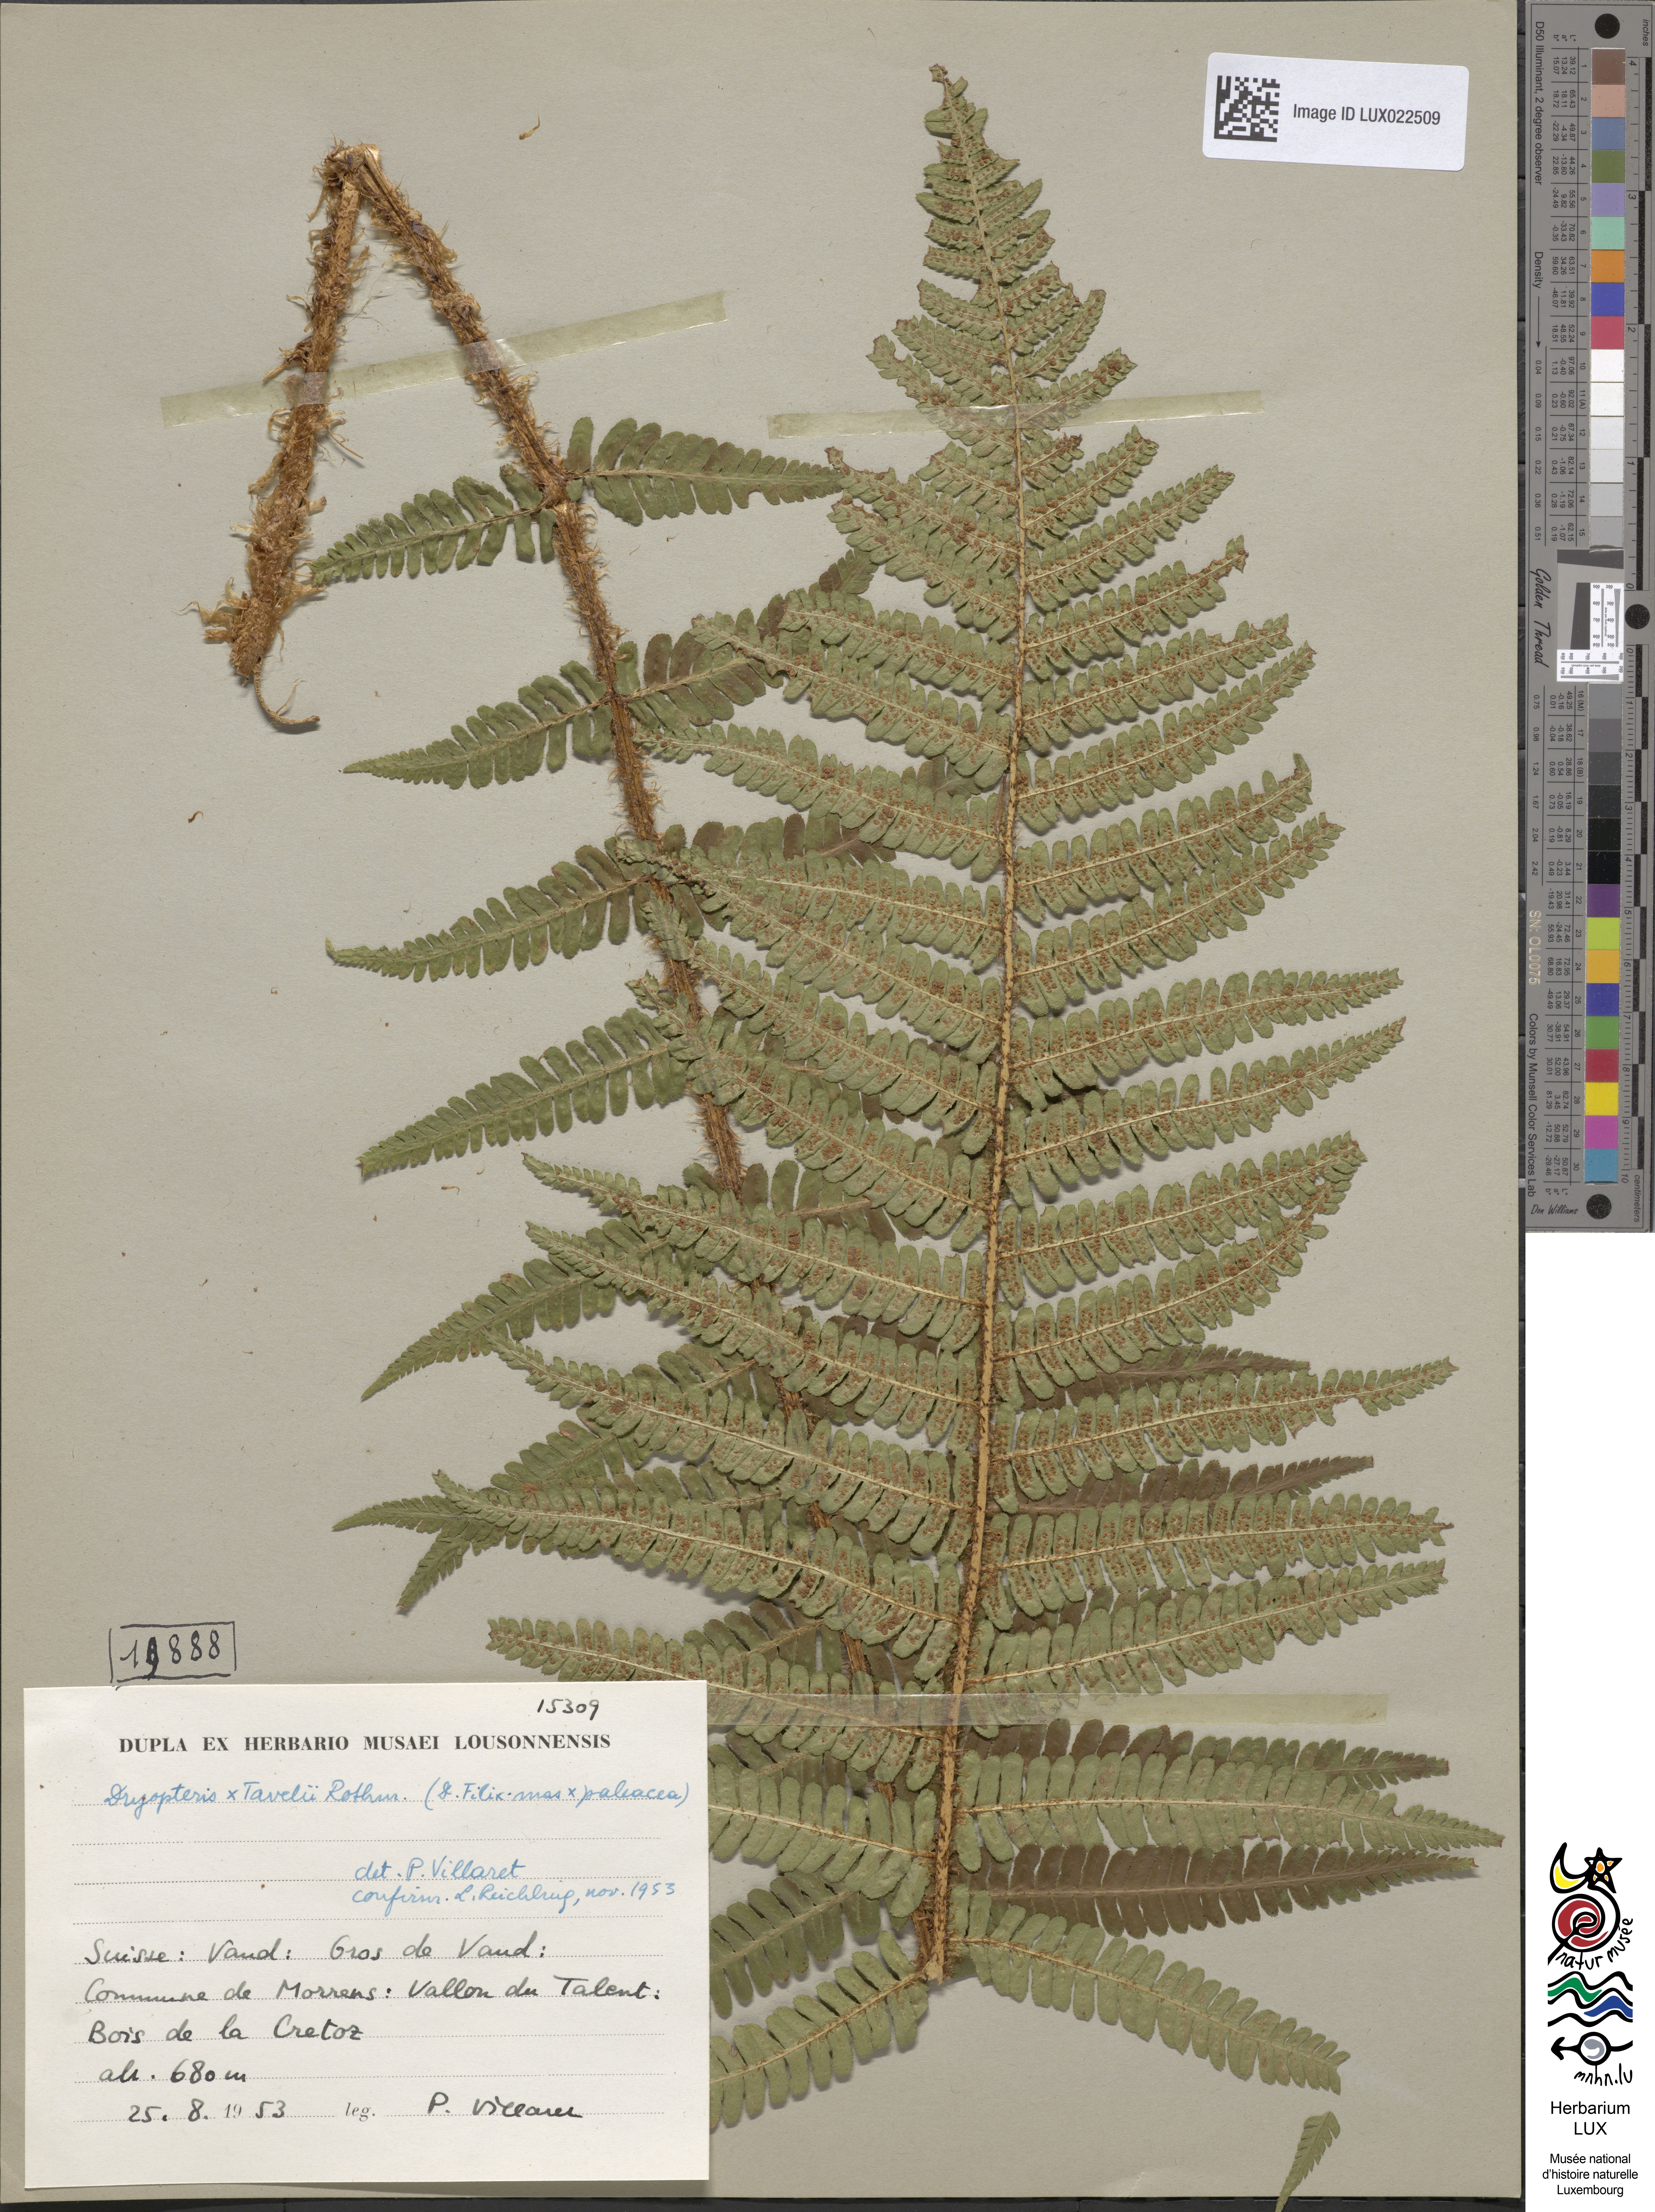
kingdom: Plantae
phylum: Tracheophyta
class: Polypodiopsida
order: Polypodiales
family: Dryopteridaceae
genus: Dryopteris
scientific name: Dryopteris borreri
